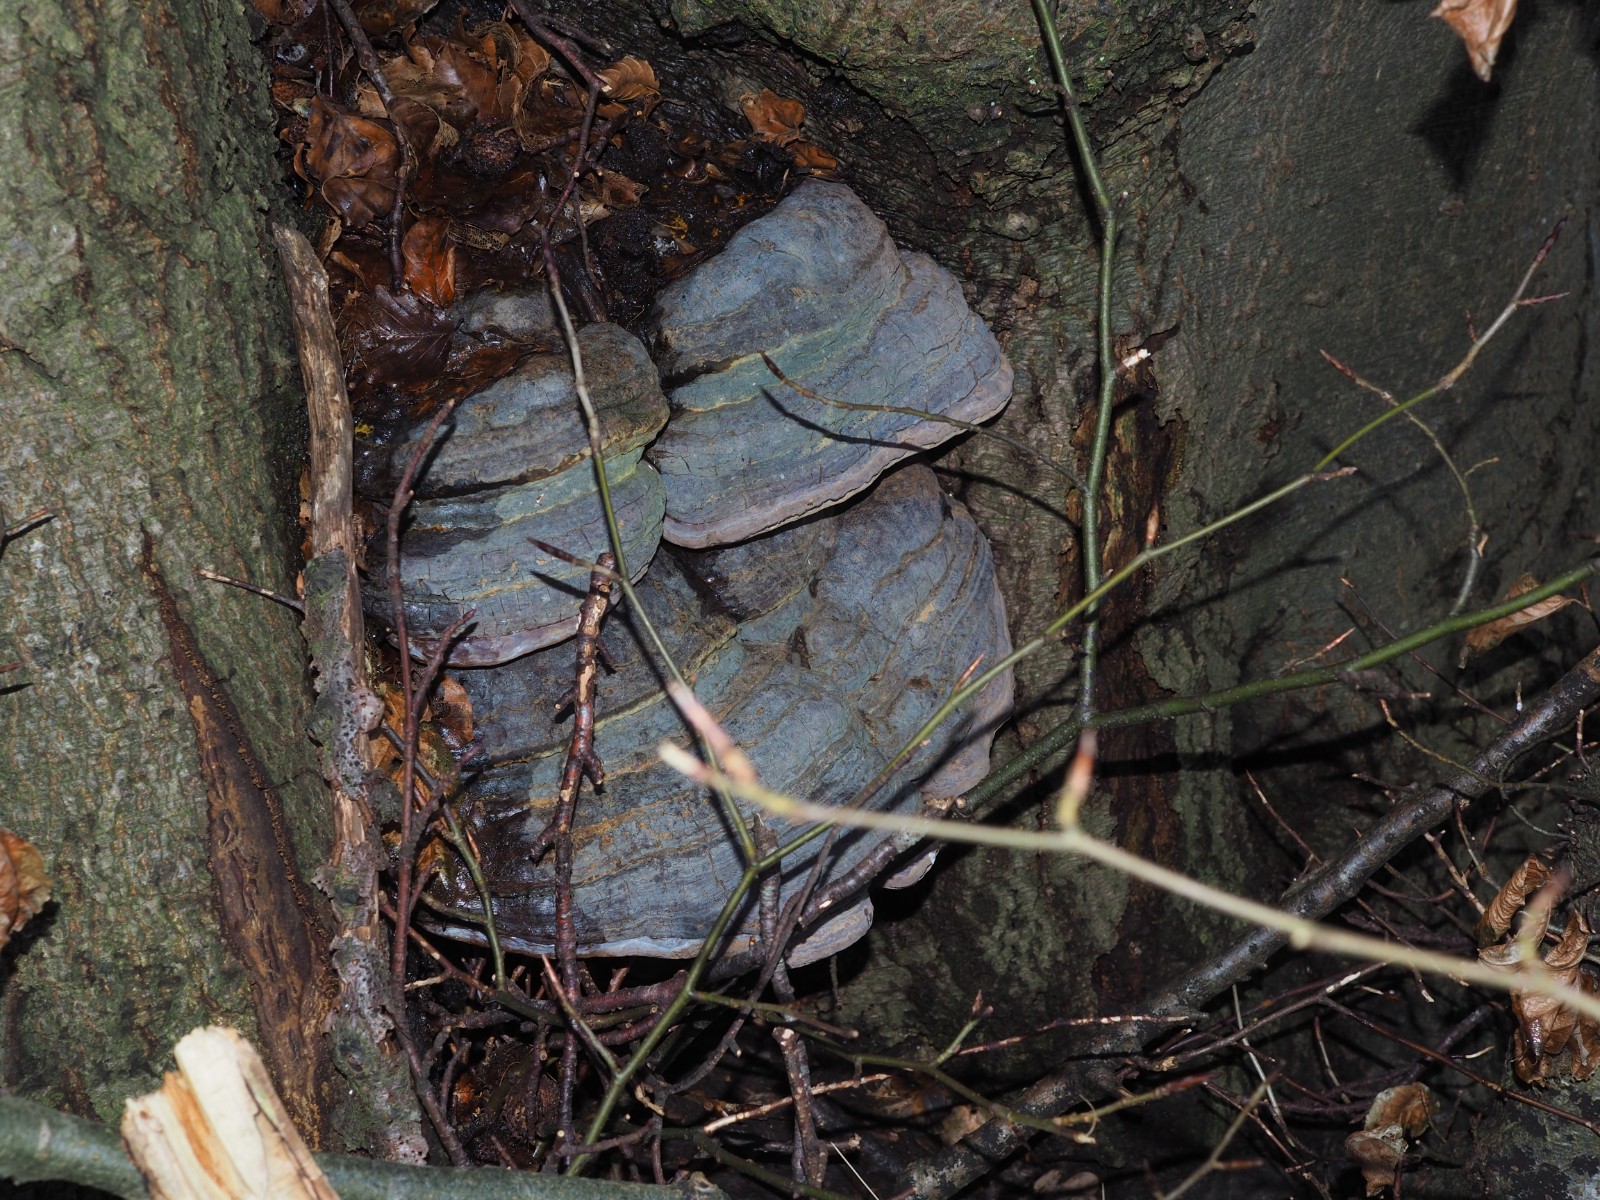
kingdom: Fungi
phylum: Basidiomycota
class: Agaricomycetes
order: Polyporales
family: Polyporaceae
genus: Ganoderma
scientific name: Ganoderma pfeifferi
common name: kobberrød lakporesvamp
